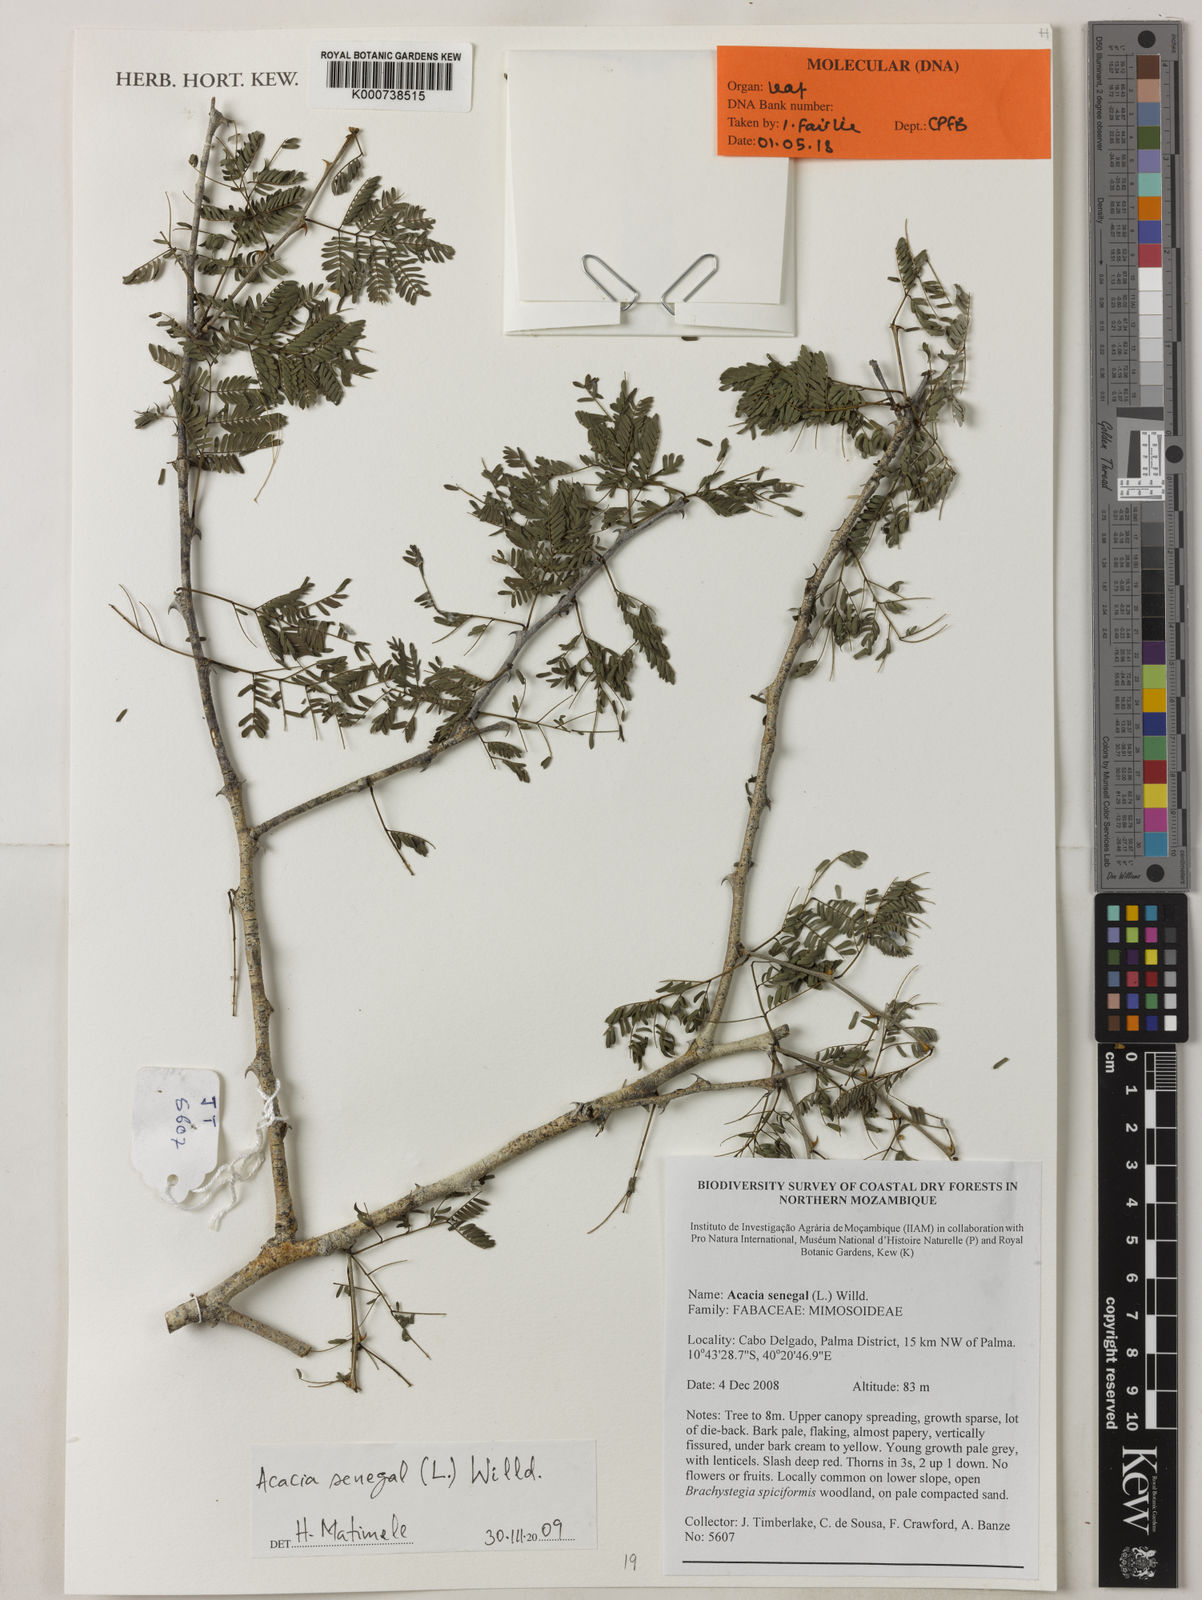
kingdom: Plantae
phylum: Tracheophyta
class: Magnoliopsida
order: Fabales
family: Fabaceae
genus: Senegalia
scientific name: Senegalia senegal
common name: Senegal-gum
